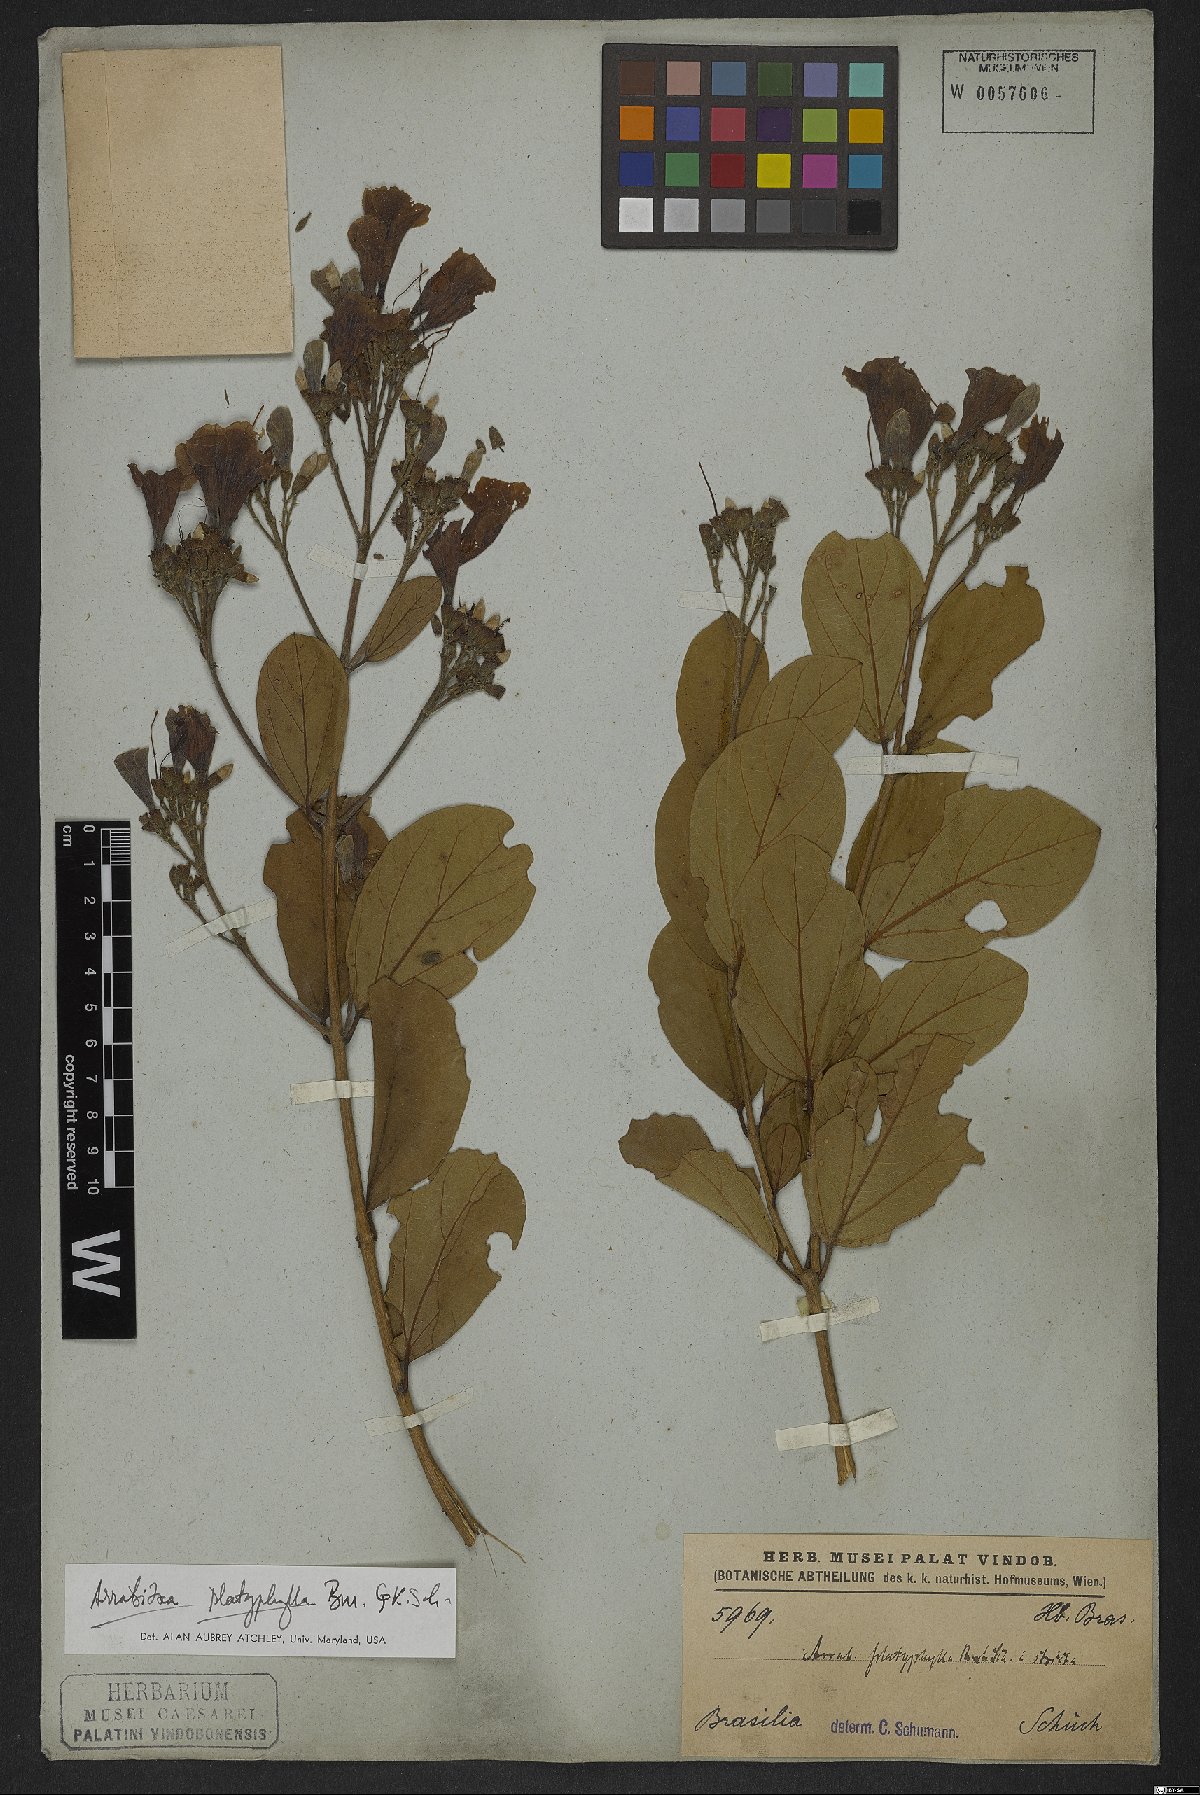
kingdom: Plantae
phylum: Tracheophyta
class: Magnoliopsida
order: Lamiales
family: Bignoniaceae
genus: Xylophragma
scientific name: Xylophragma platyphyllum
